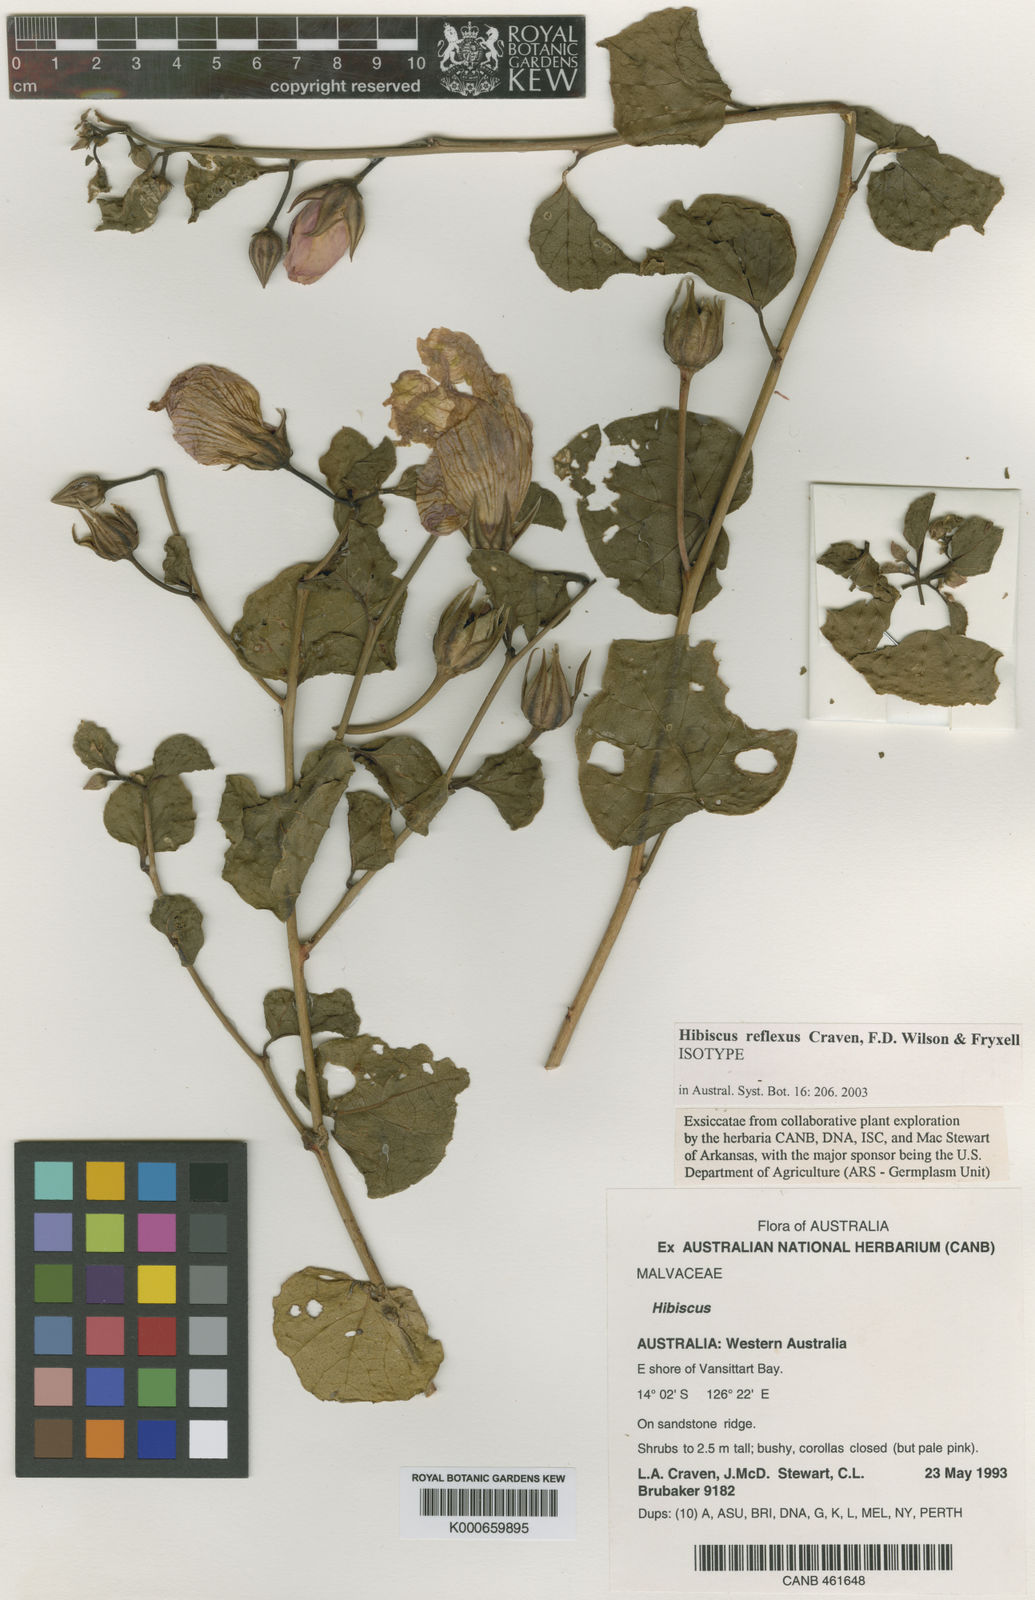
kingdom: Plantae
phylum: Tracheophyta
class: Magnoliopsida
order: Malvales
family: Malvaceae
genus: Hibiscus
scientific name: Hibiscus reflexus
